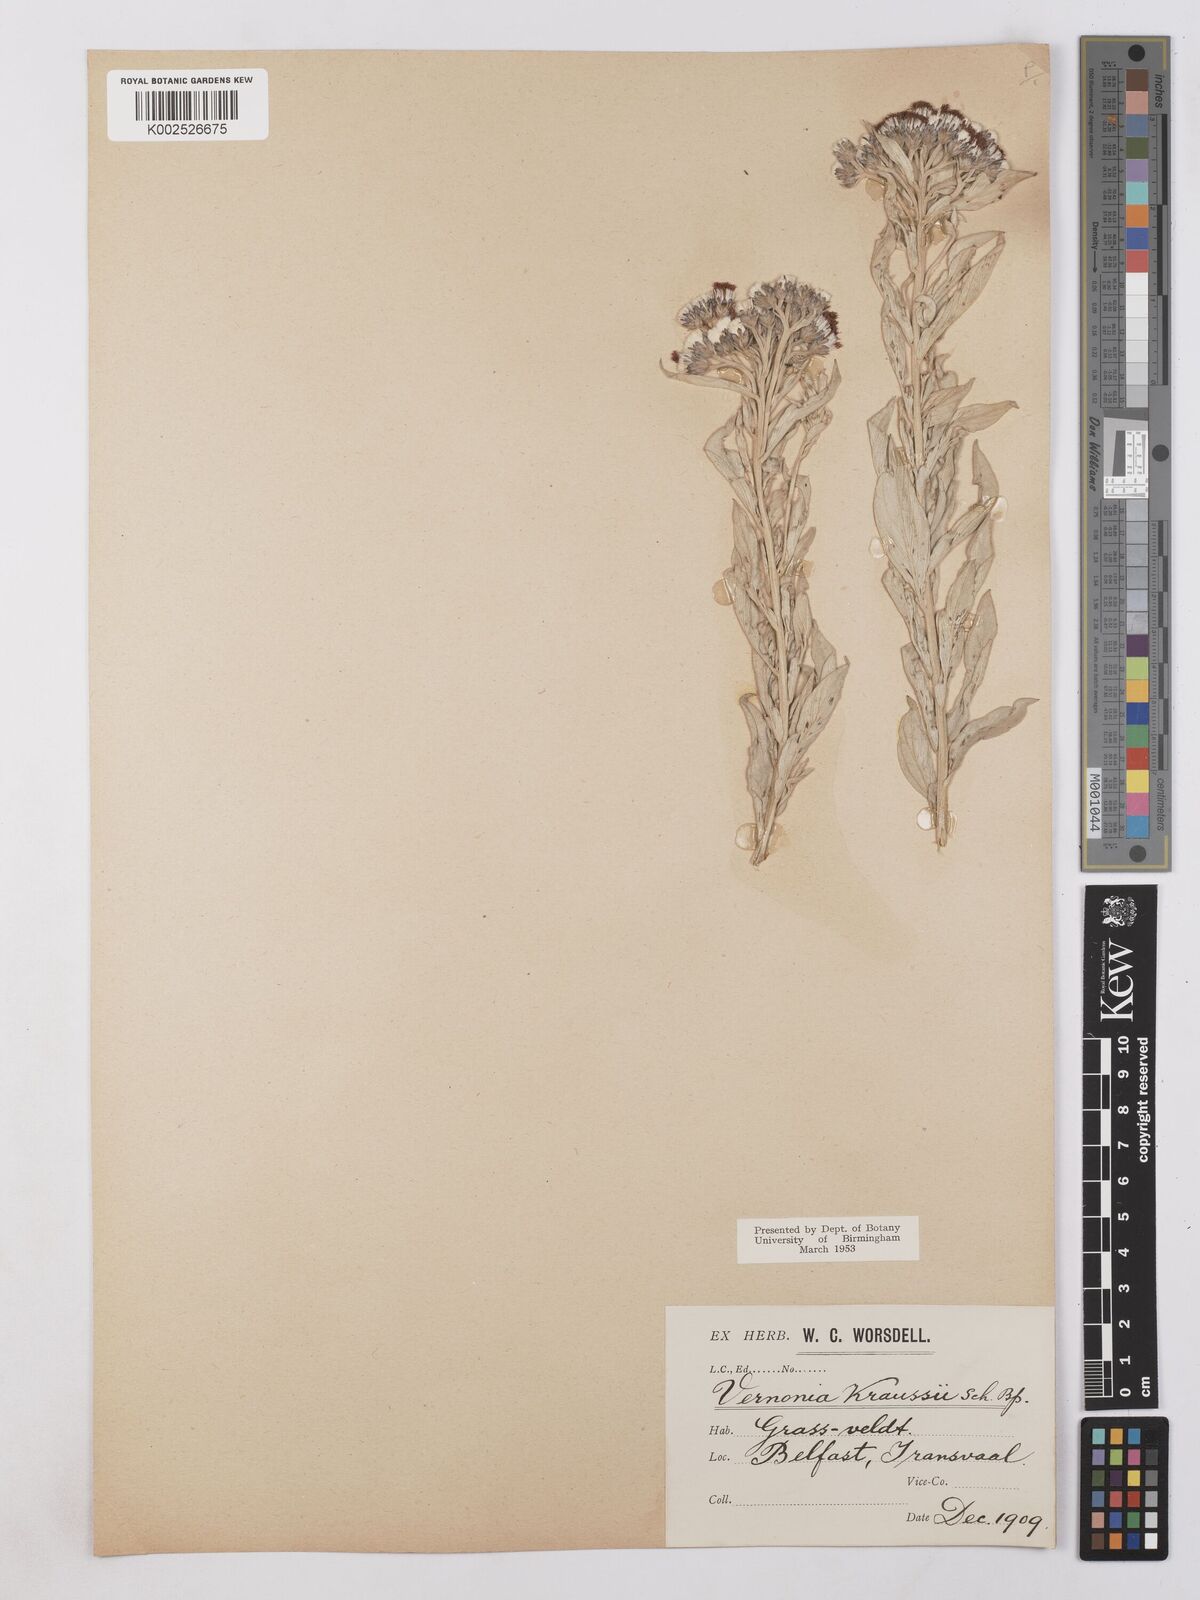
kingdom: Plantae
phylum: Tracheophyta
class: Magnoliopsida
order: Asterales
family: Asteraceae
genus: Hilliardiella
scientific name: Hilliardiella oligocephala
